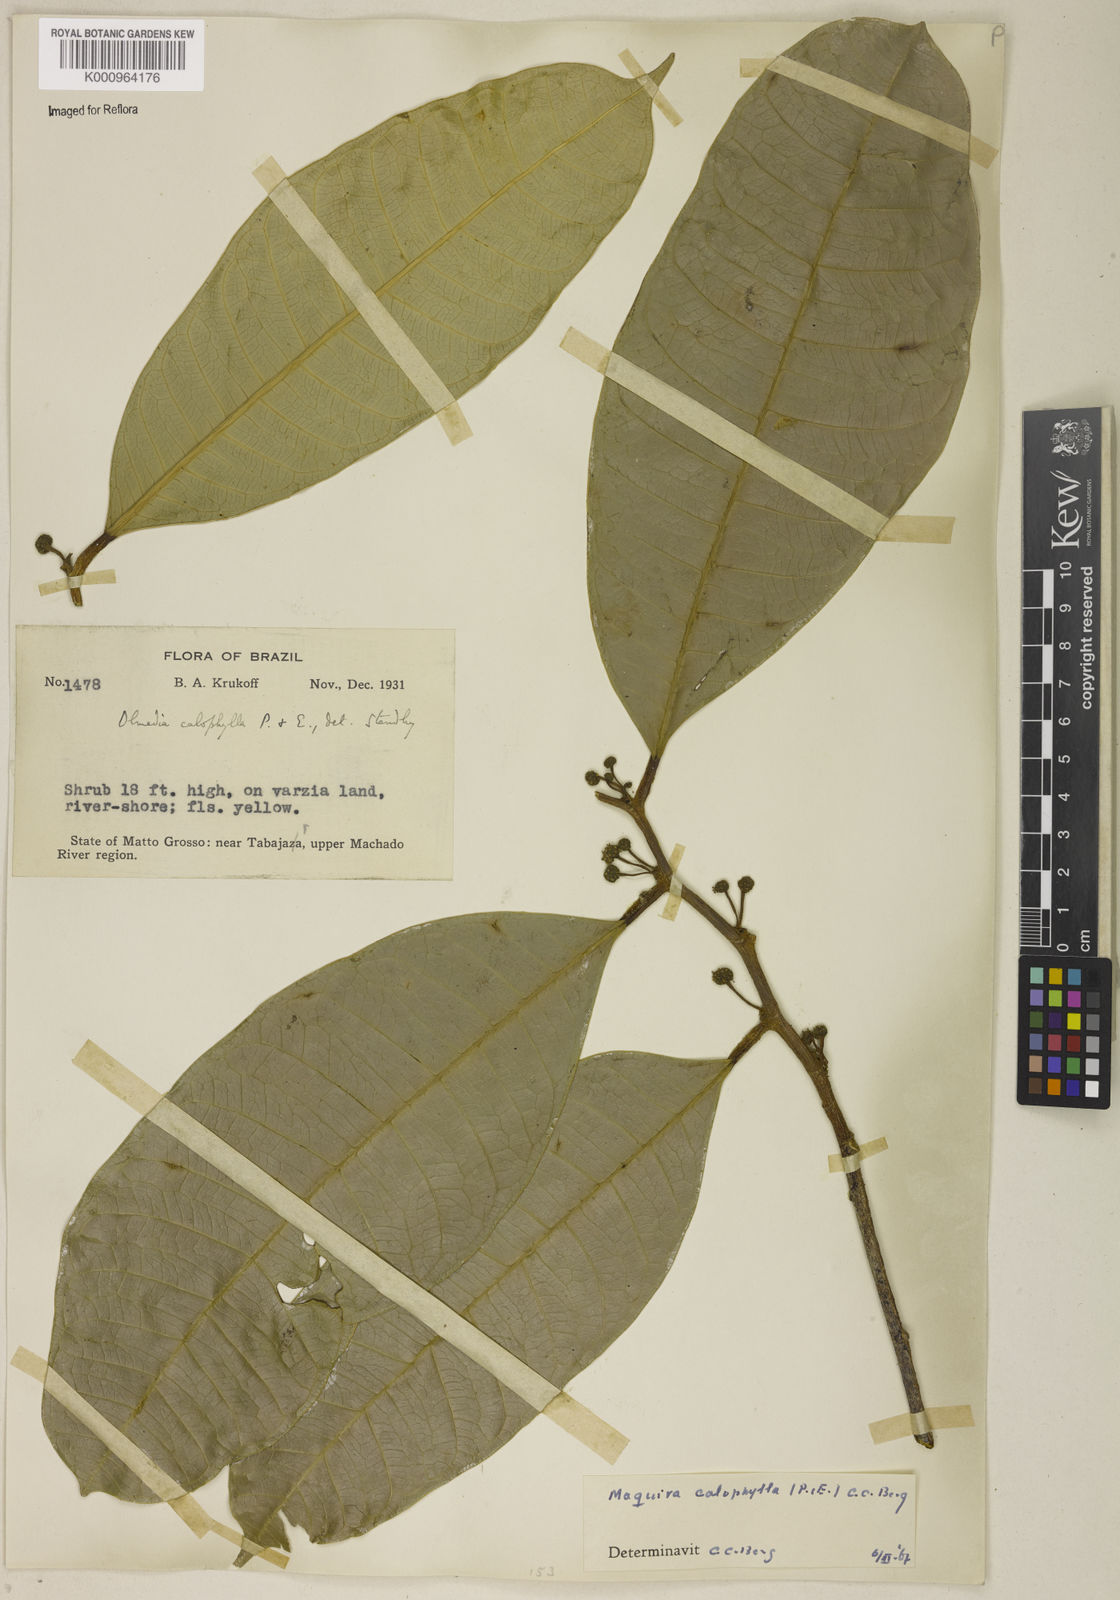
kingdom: Plantae
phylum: Tracheophyta
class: Magnoliopsida
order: Rosales
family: Moraceae
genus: Maquira
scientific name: Maquira calophylla
